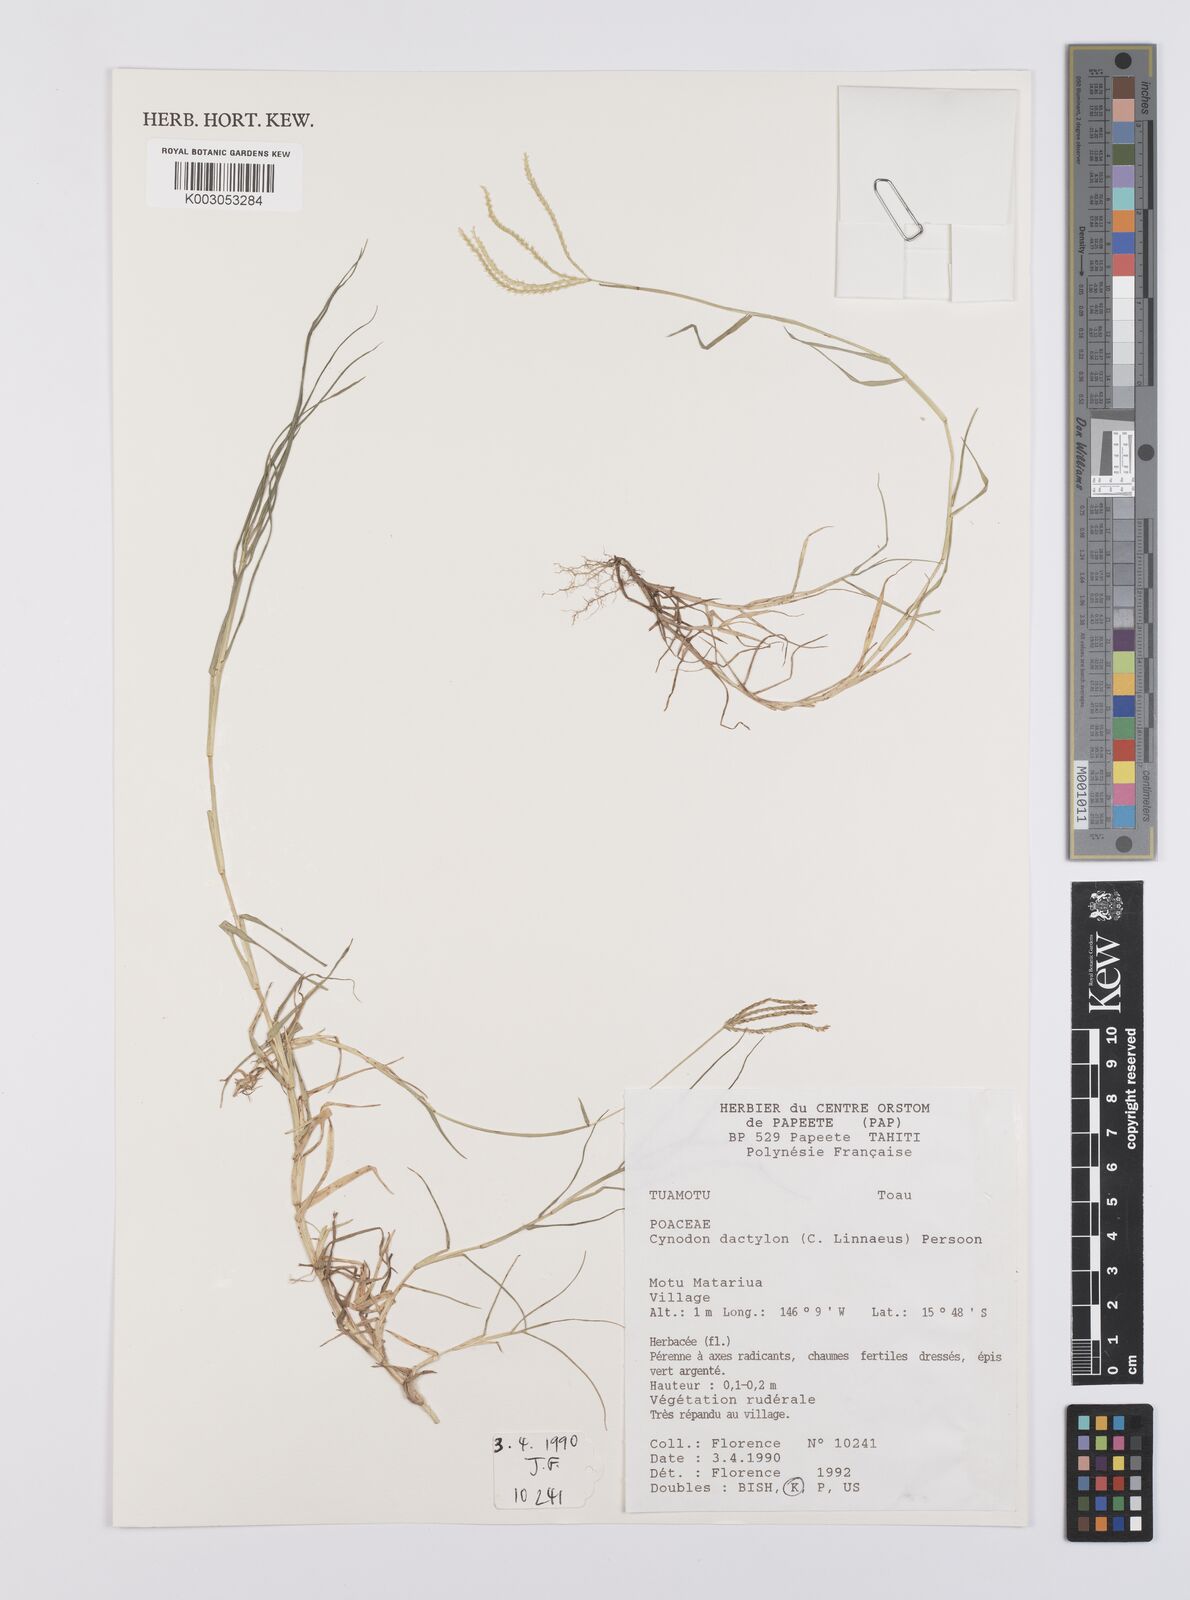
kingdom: Plantae
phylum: Tracheophyta
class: Liliopsida
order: Poales
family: Poaceae
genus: Cynodon
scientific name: Cynodon dactylon
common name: Bermuda grass
